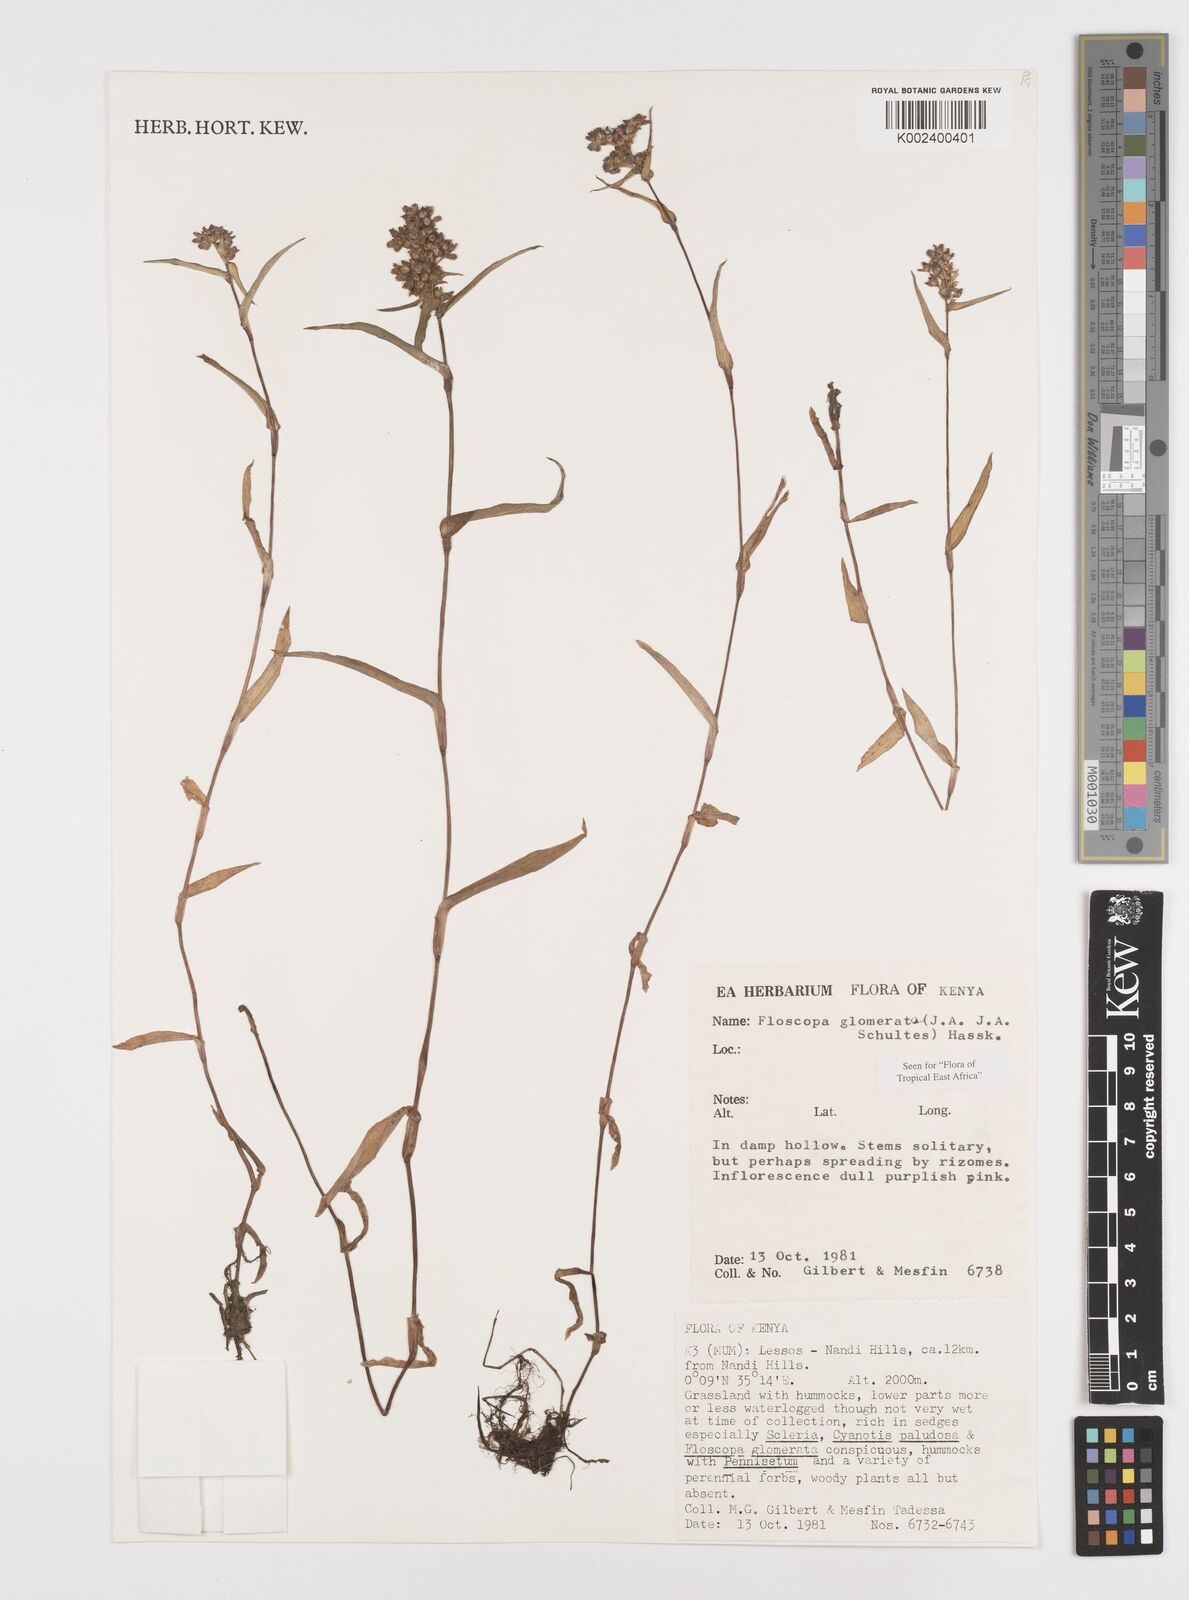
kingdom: Plantae
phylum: Tracheophyta
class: Liliopsida
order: Commelinales
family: Commelinaceae
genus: Floscopa
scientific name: Floscopa glomerata
